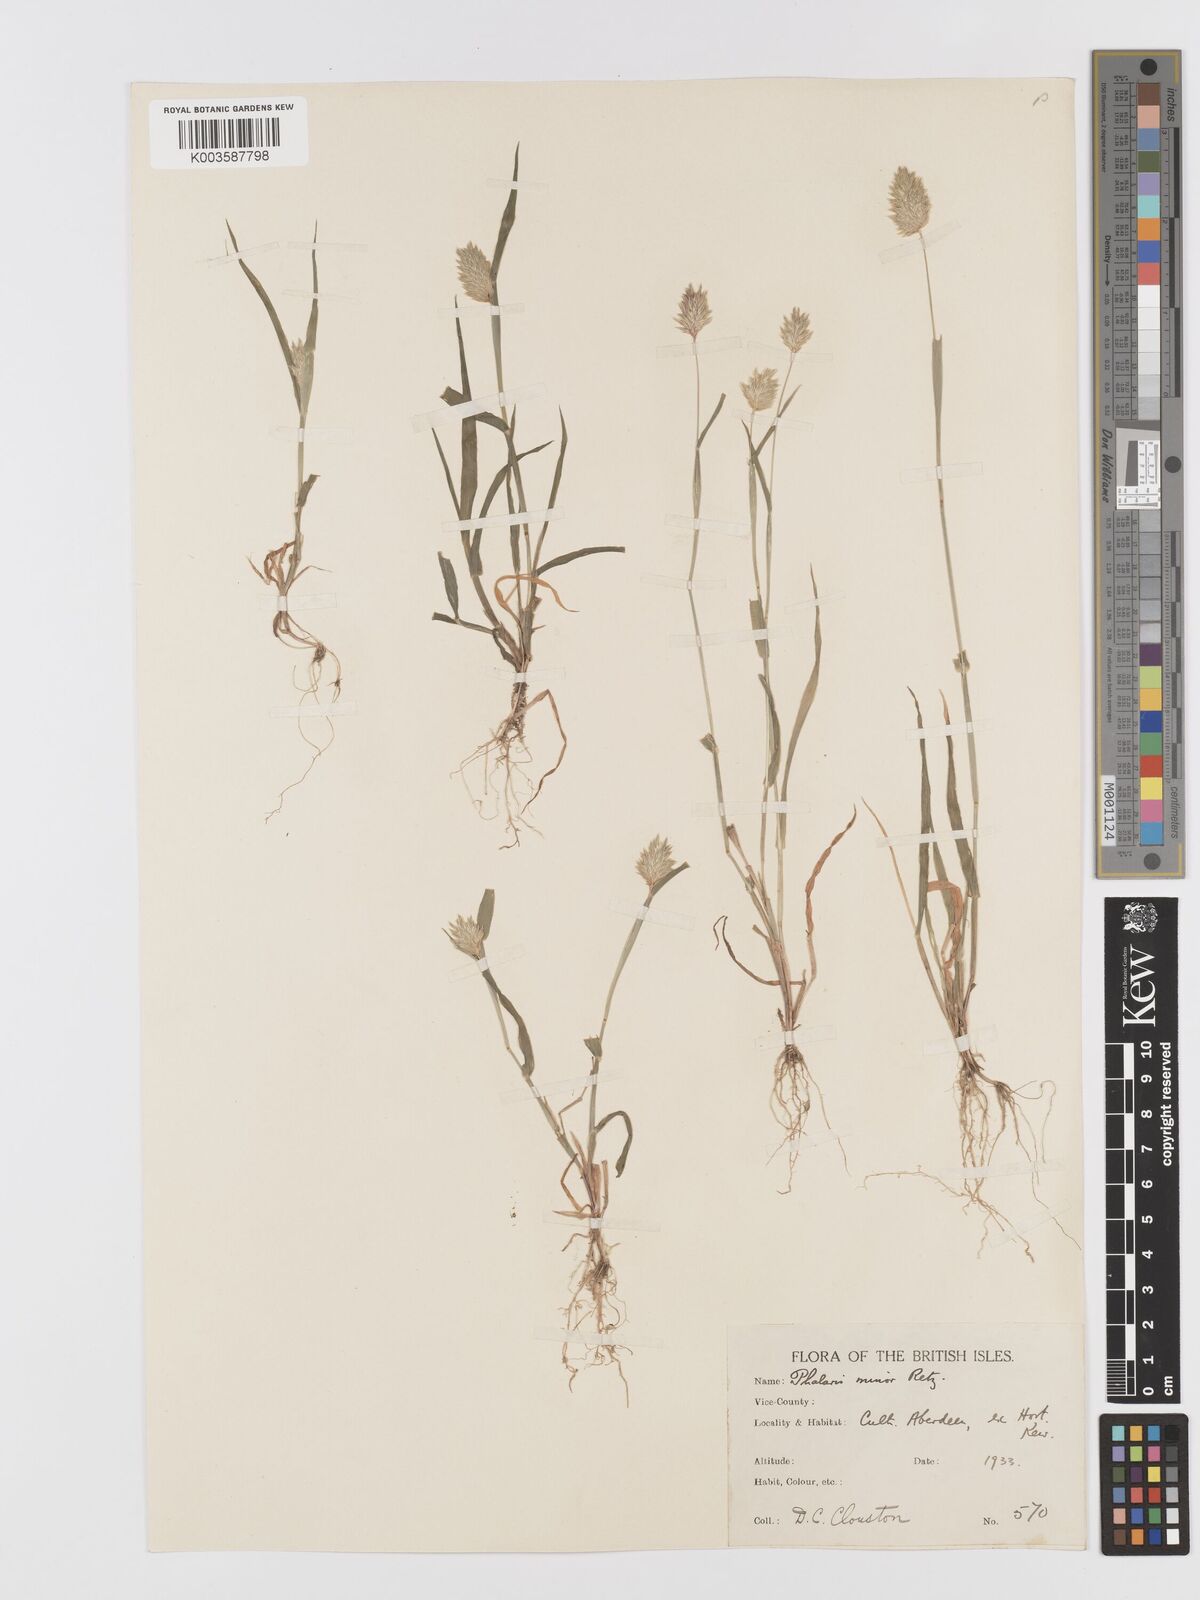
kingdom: Plantae
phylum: Tracheophyta
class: Liliopsida
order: Poales
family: Poaceae
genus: Phalaris
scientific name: Phalaris minor
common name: Littleseed canarygrass
